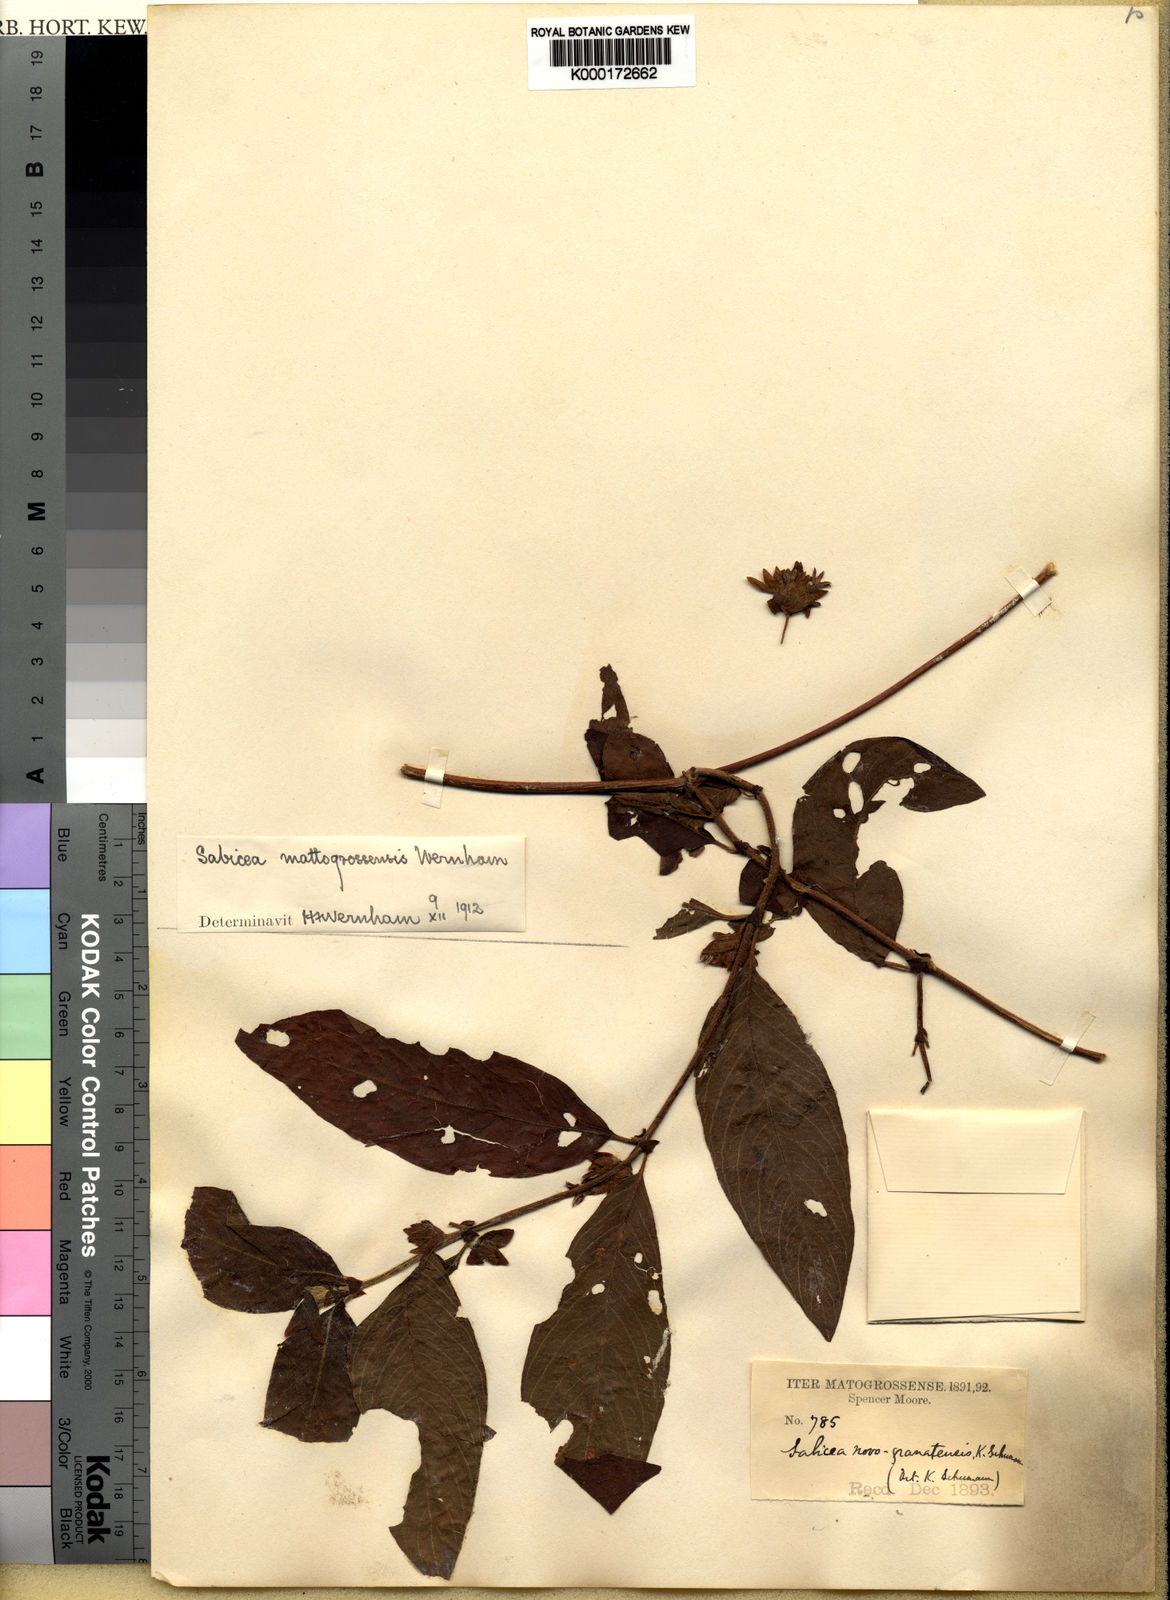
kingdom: Plantae
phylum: Tracheophyta
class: Magnoliopsida
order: Gentianales
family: Rubiaceae
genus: Sabicea
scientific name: Sabicea mattogrossensis
